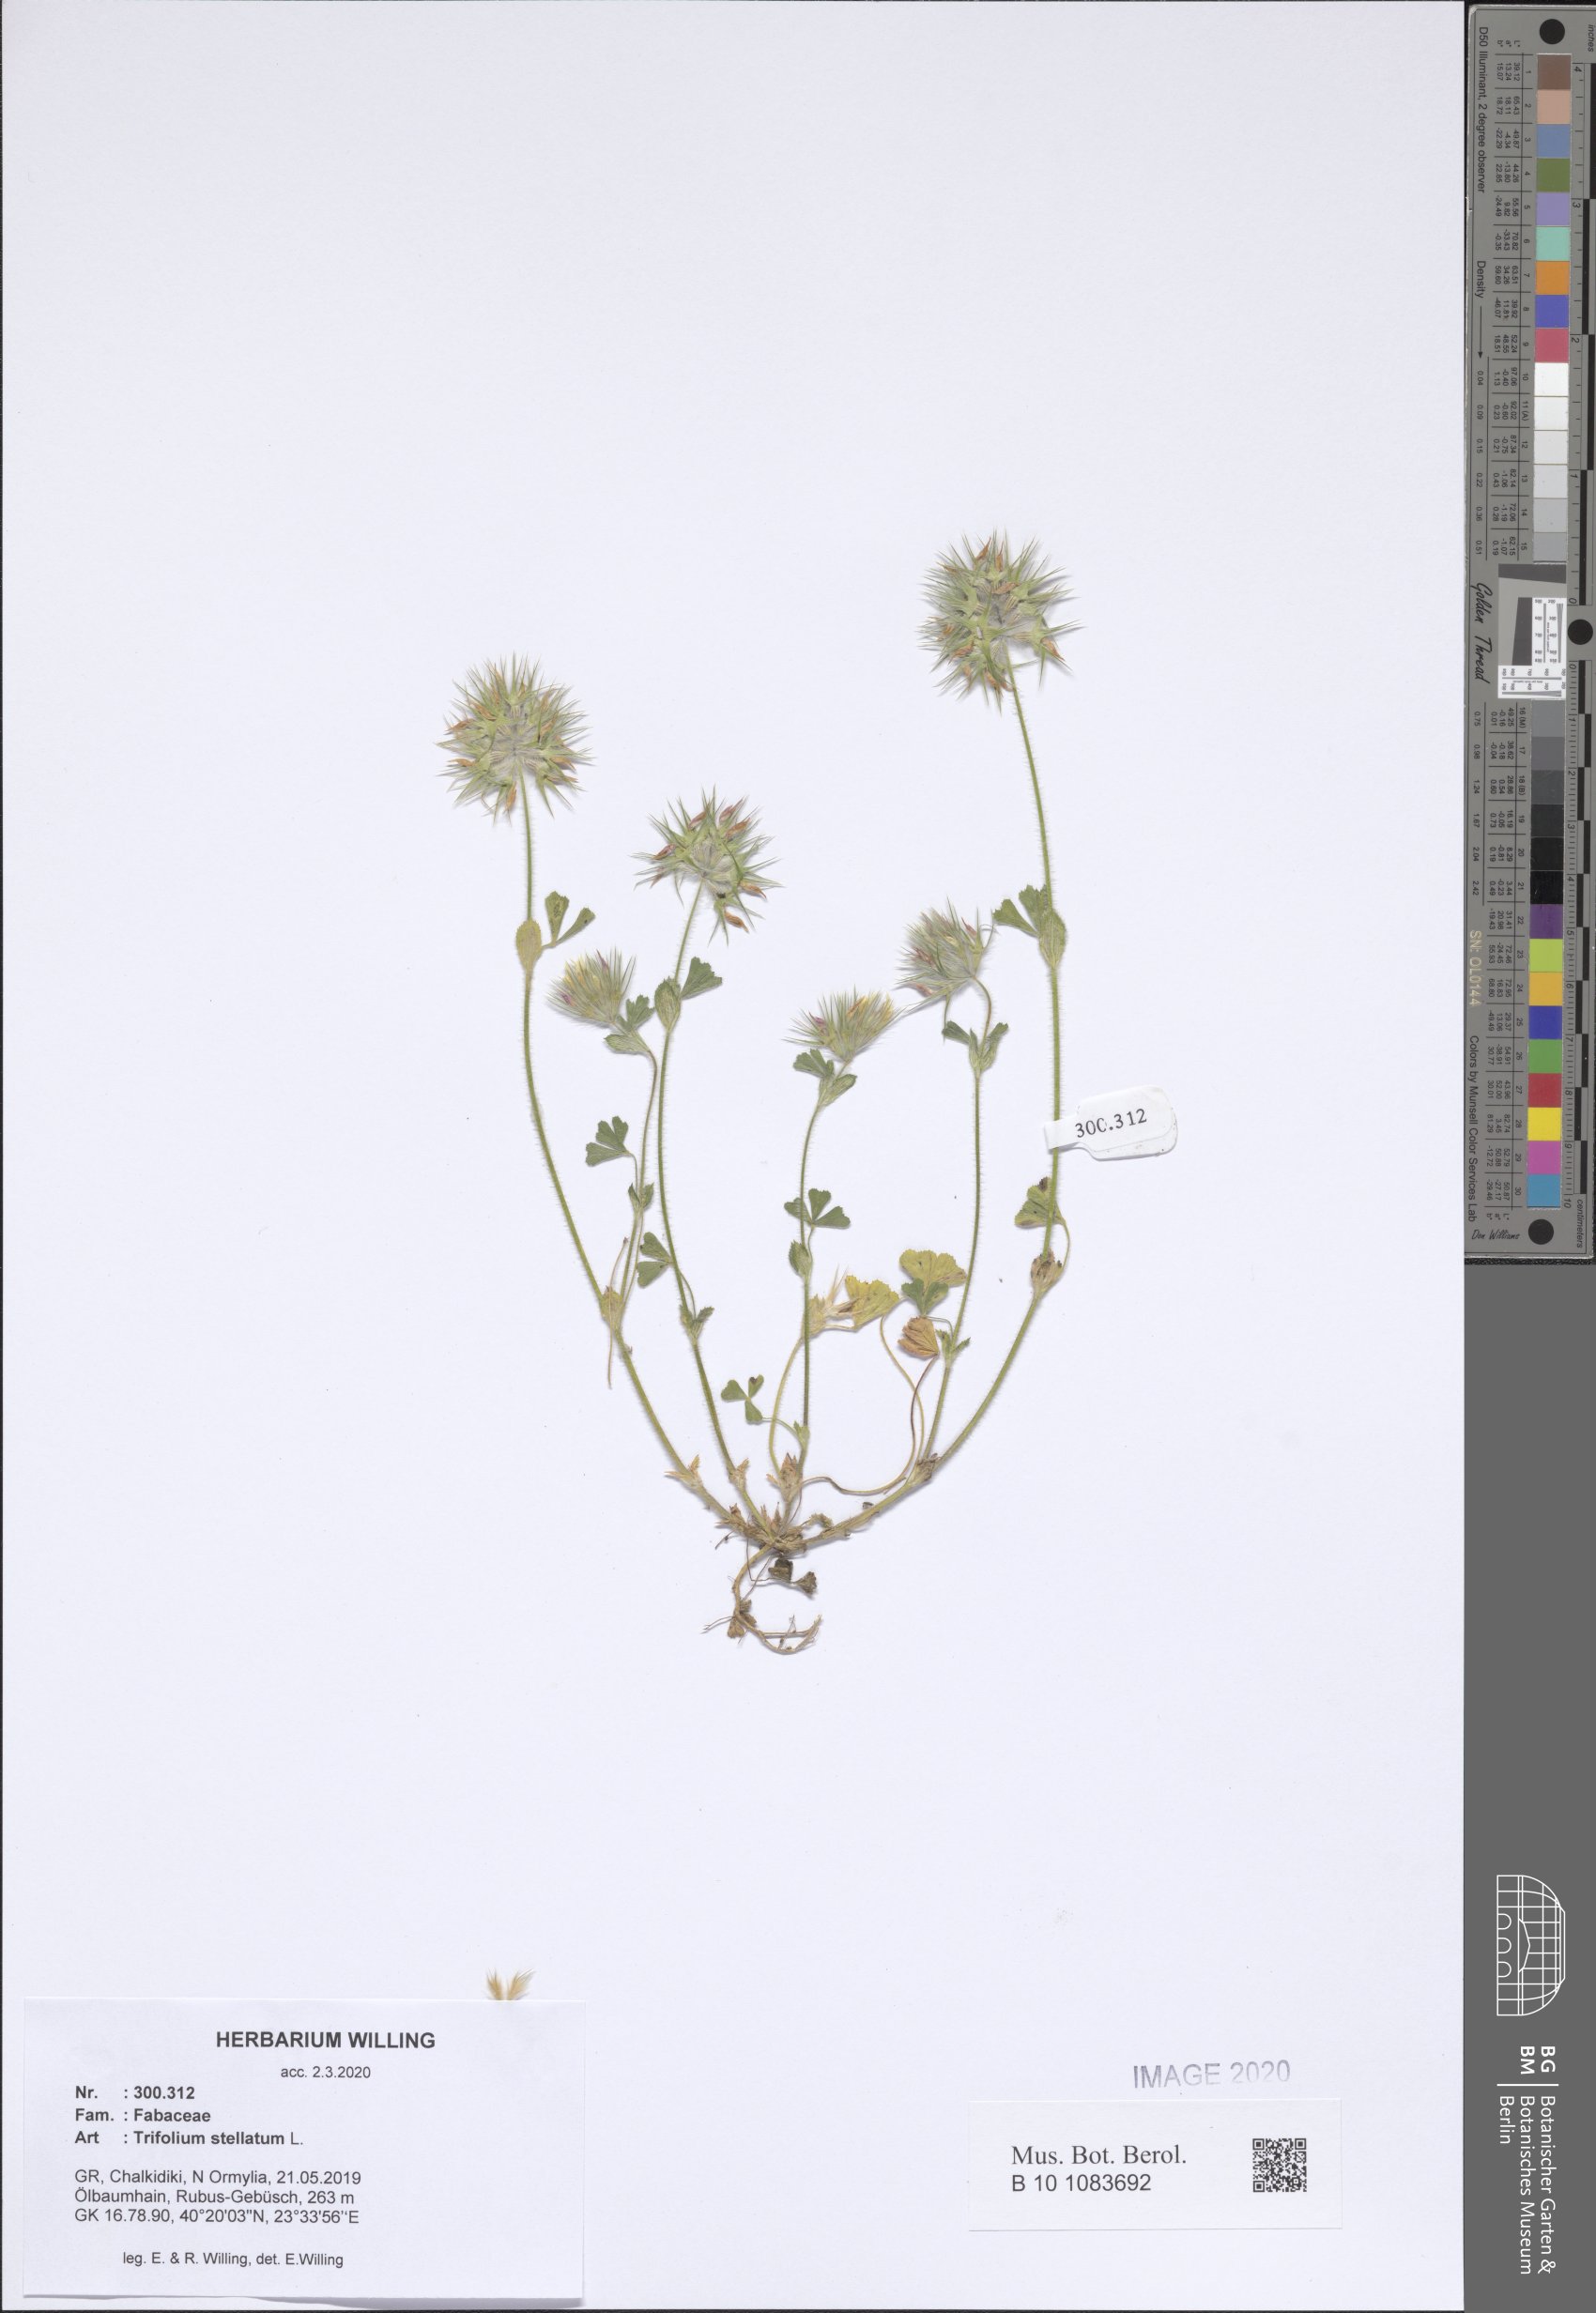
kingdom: Plantae
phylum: Tracheophyta
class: Magnoliopsida
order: Fabales
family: Fabaceae
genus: Trifolium
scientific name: Trifolium stellatum
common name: Starry clover
